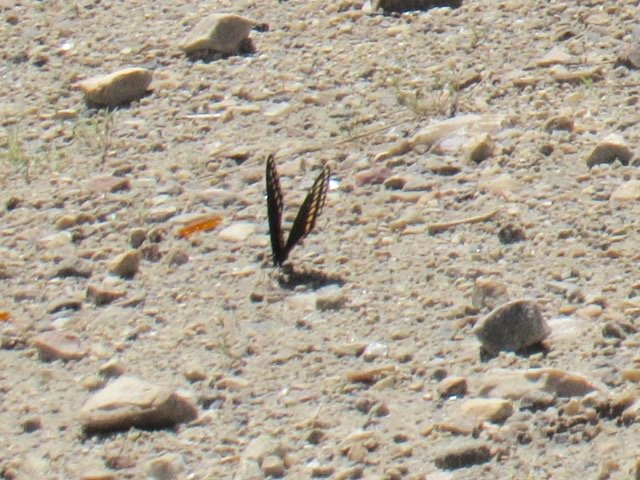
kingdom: Animalia
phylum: Arthropoda
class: Insecta
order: Lepidoptera
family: Papilionidae
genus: Papilio
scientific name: Papilio polyxenes
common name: Black Swallowtail
